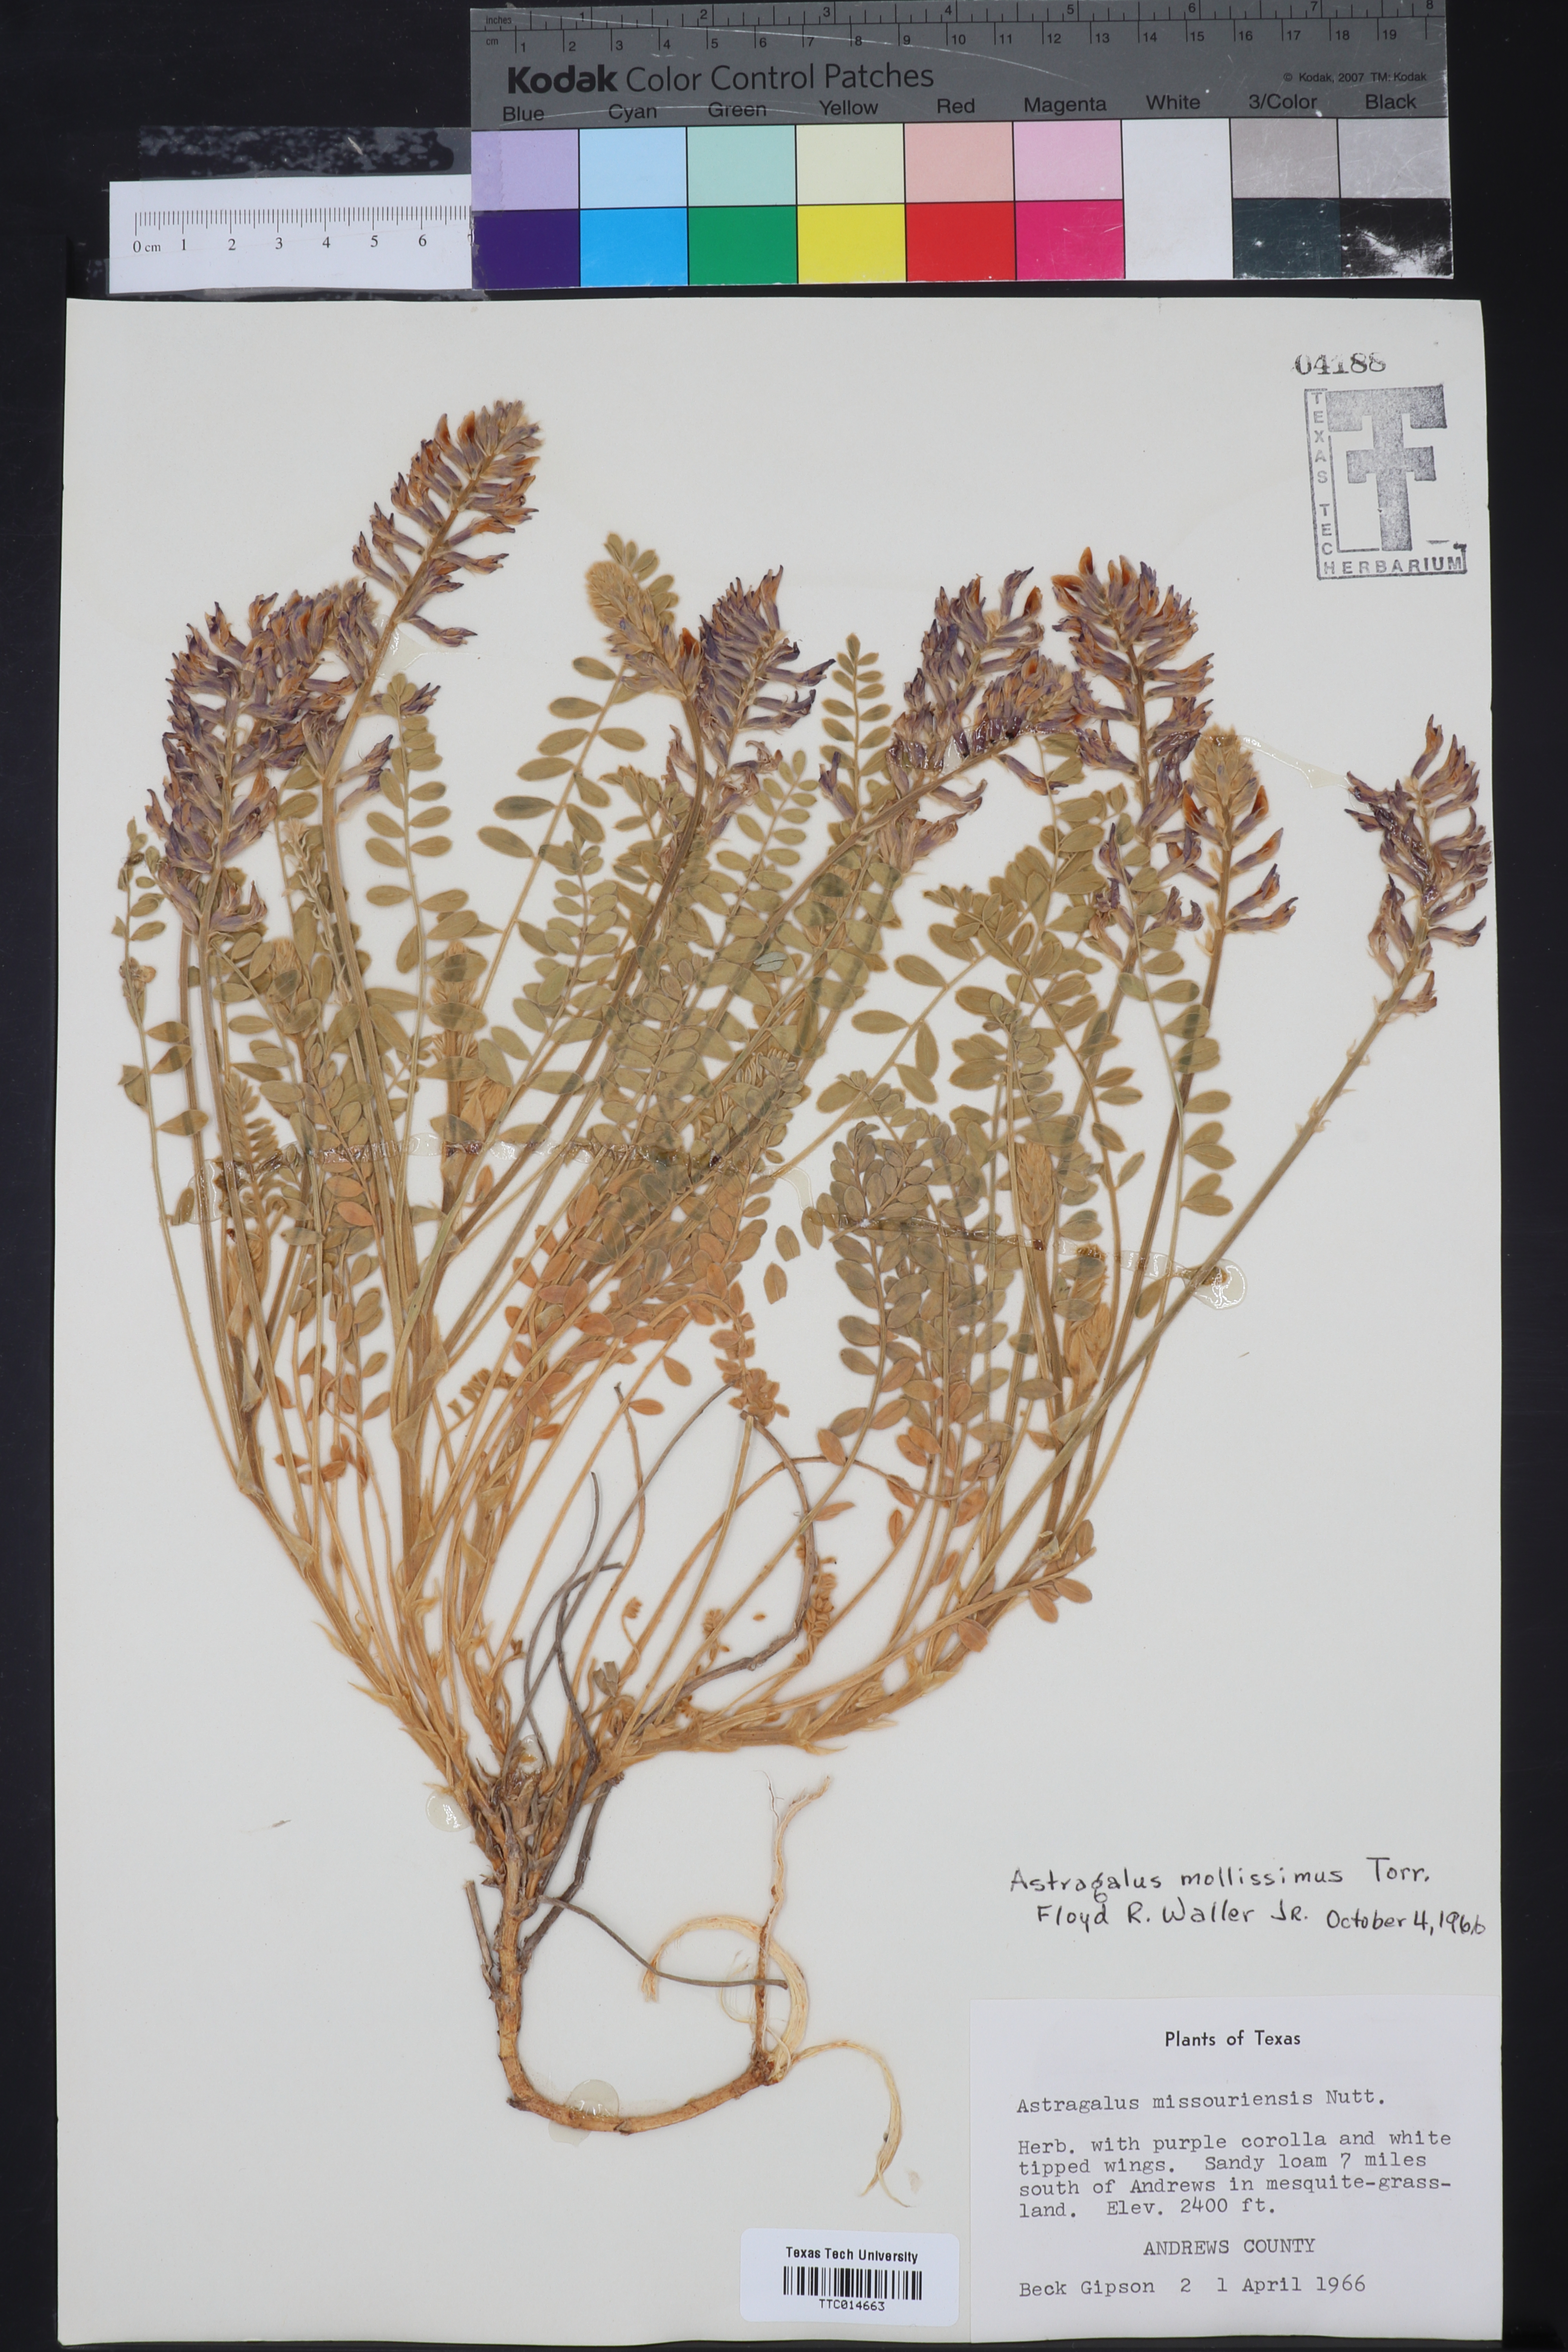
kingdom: Plantae
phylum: Tracheophyta
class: Magnoliopsida
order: Fabales
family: Fabaceae
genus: Astragalus
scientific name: Astragalus mollissimus
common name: Woolly locoweed
